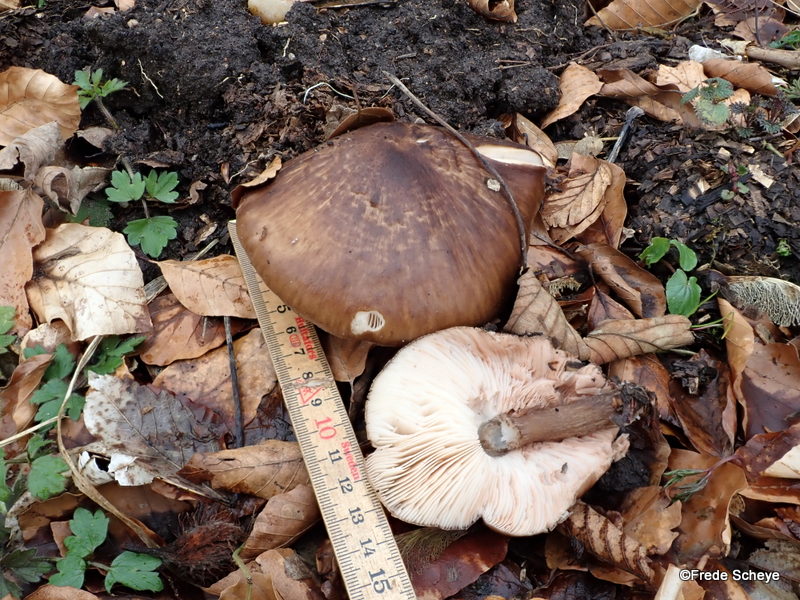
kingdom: Fungi
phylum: Basidiomycota
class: Agaricomycetes
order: Agaricales
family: Pluteaceae
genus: Pluteus
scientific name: Pluteus cervinus
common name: sodfarvet skærmhat
